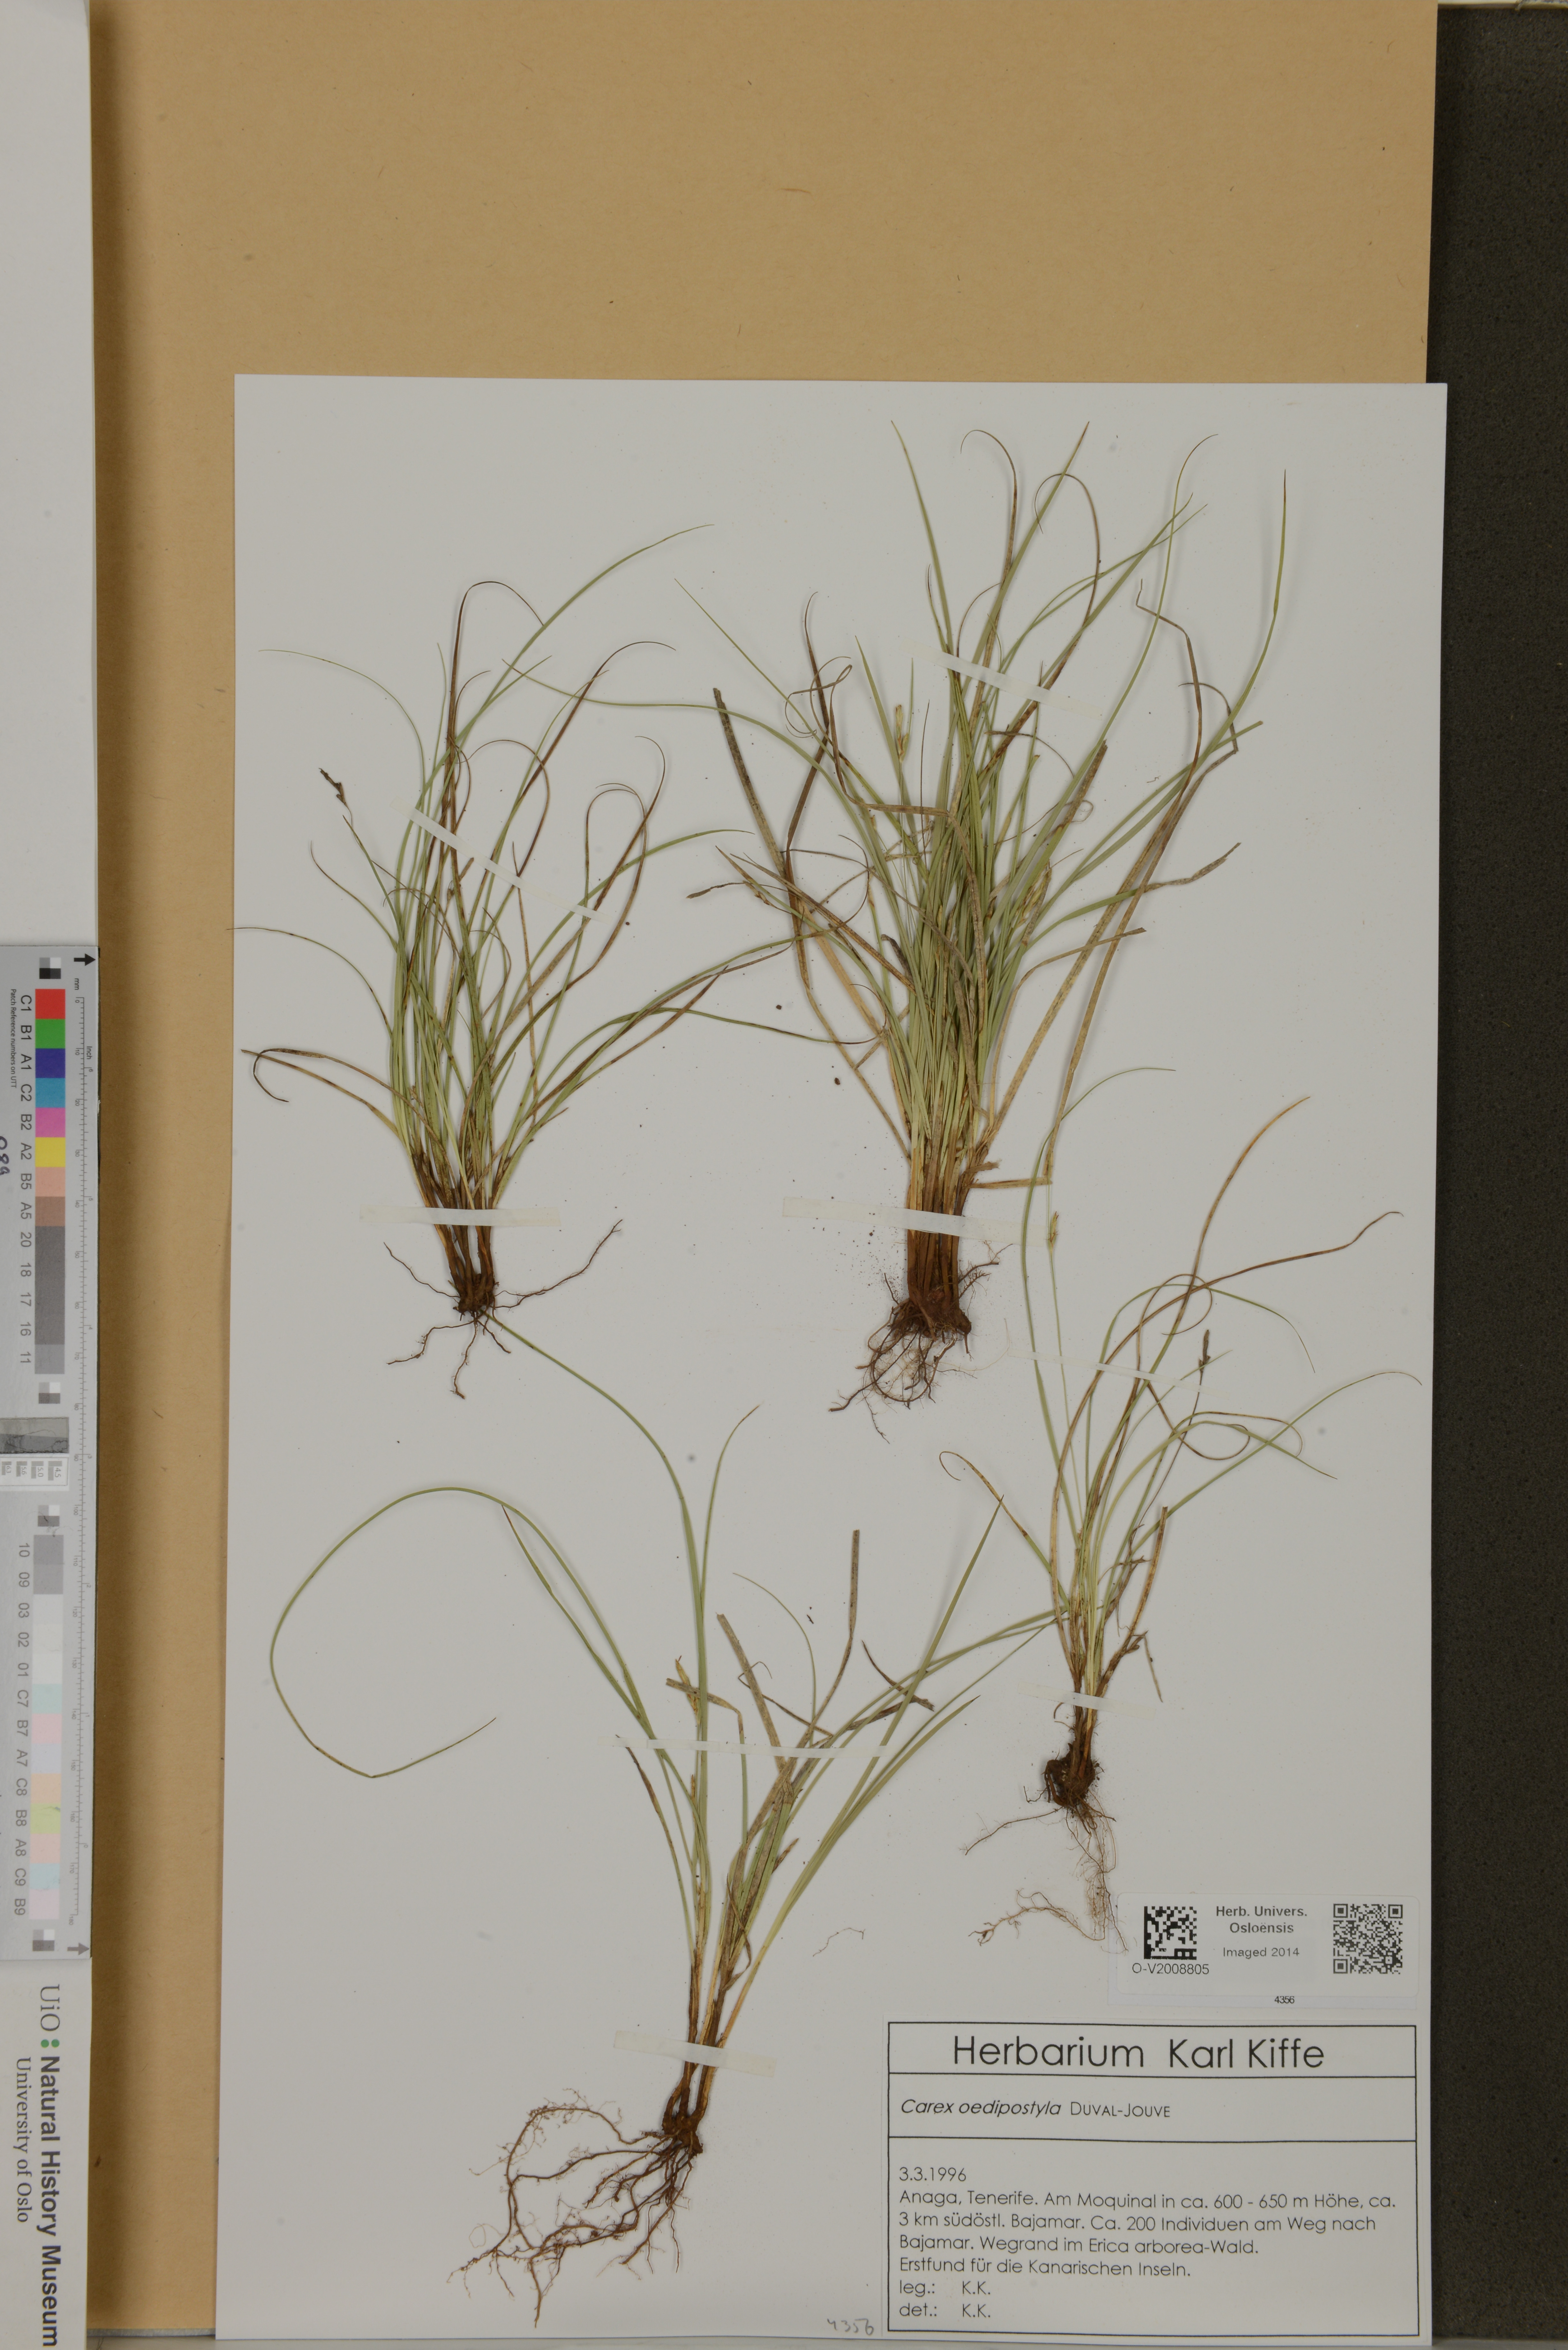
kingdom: Plantae
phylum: Tracheophyta
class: Liliopsida
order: Poales
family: Cyperaceae
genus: Carex
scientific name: Carex oedipostyla
